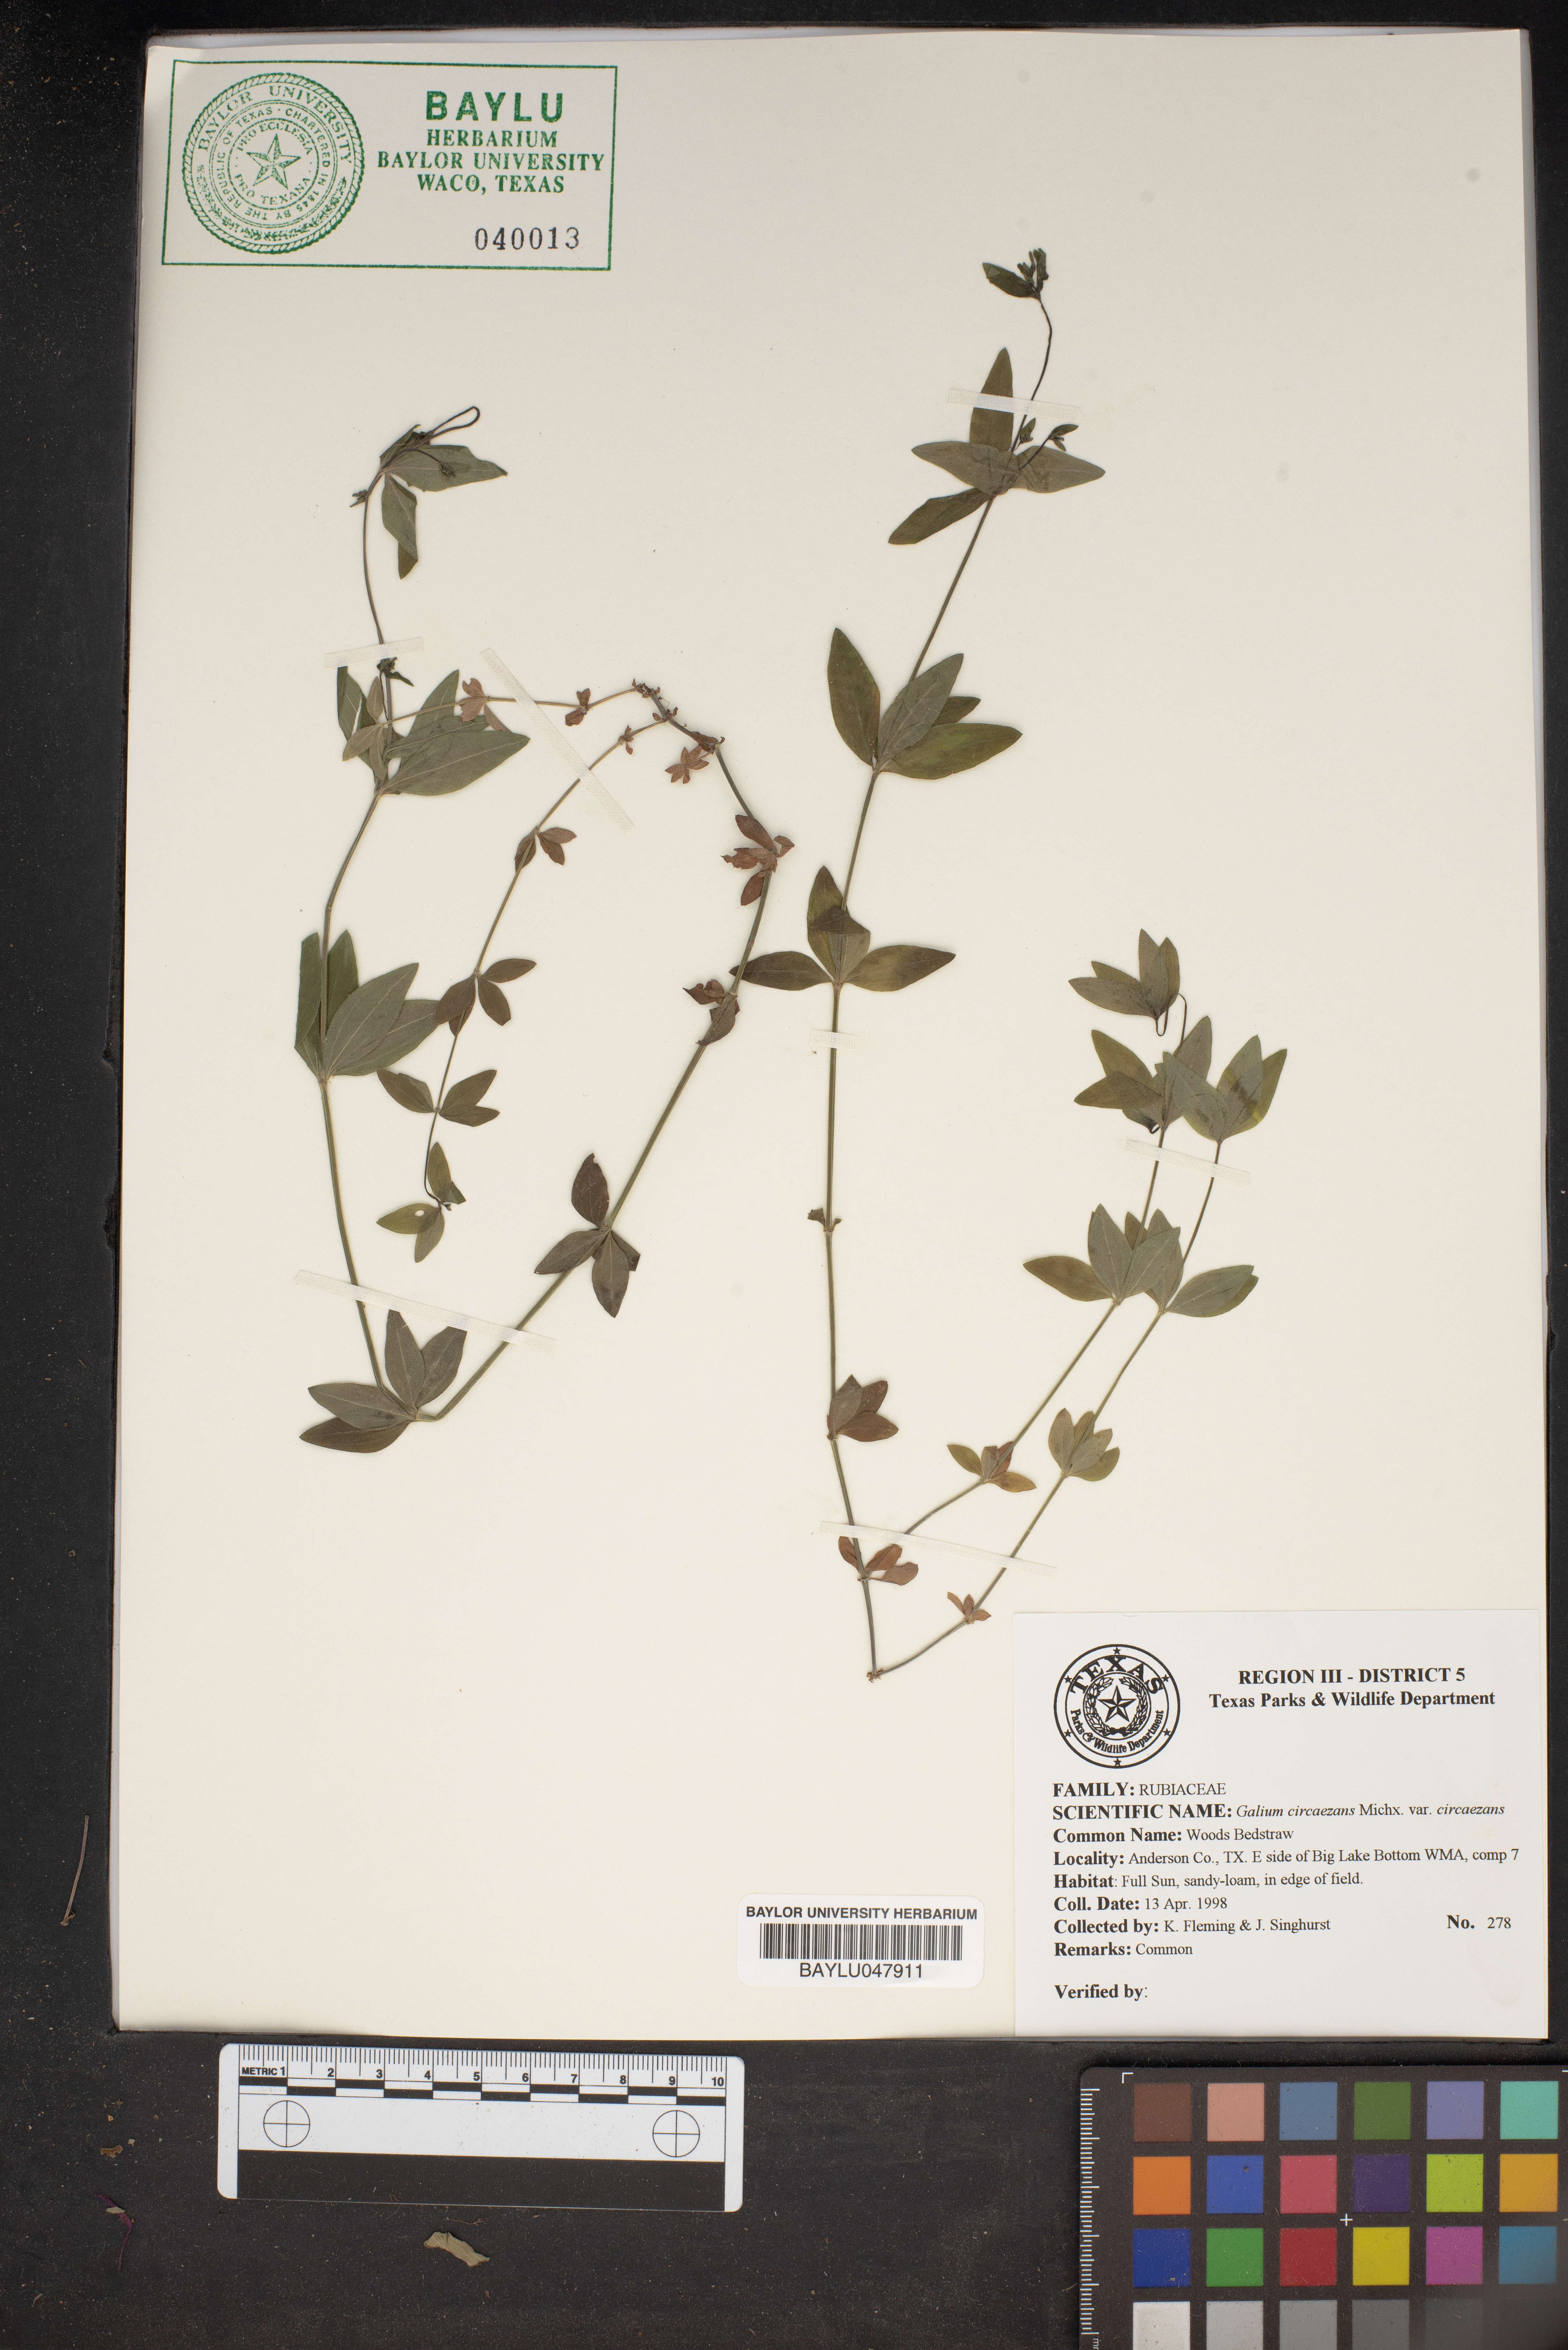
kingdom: Plantae
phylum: Tracheophyta
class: Magnoliopsida
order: Gentianales
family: Rubiaceae
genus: Galium
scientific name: Galium circaezans
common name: Forest bedstraw
